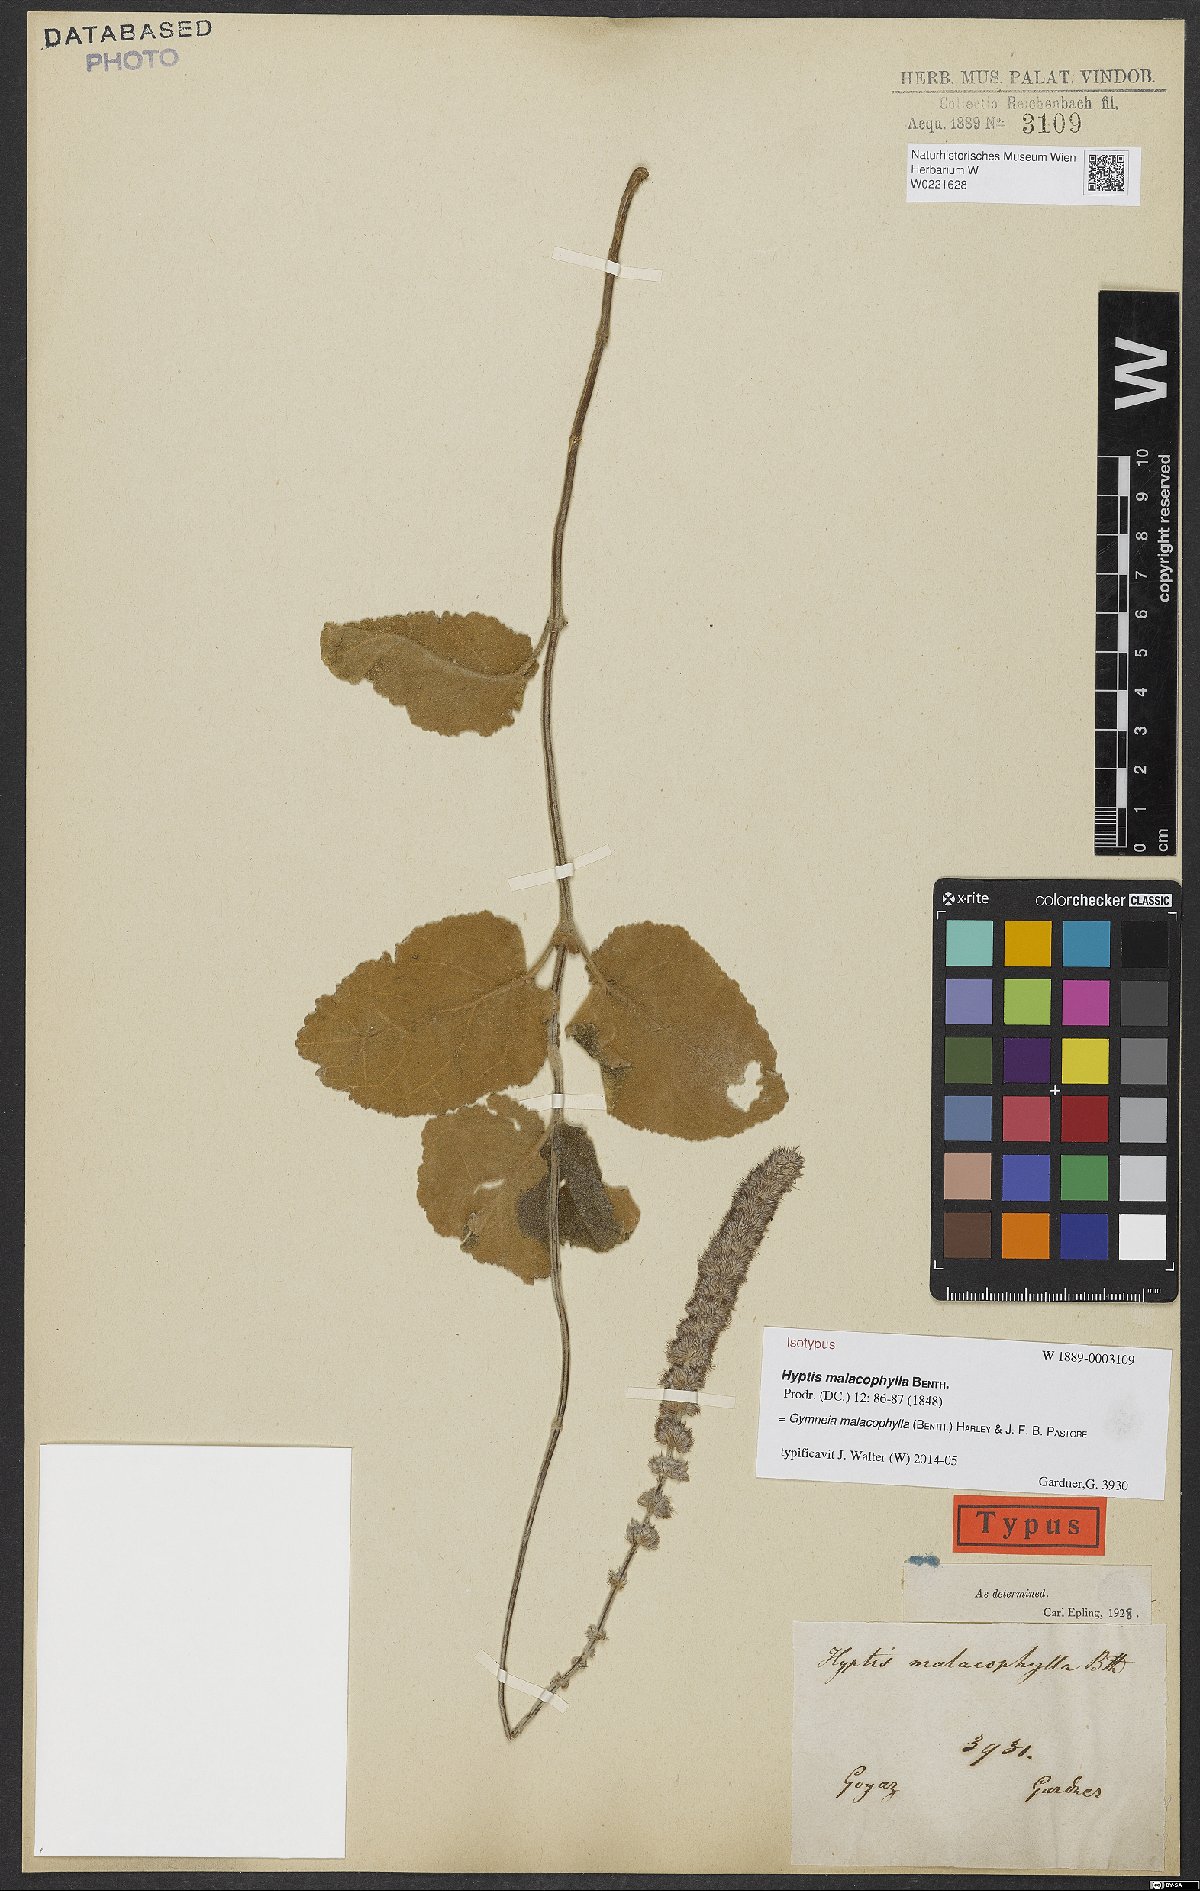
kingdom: Plantae
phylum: Tracheophyta
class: Magnoliopsida
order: Lamiales
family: Lamiaceae
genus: Gymneia
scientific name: Gymneia malacophylla
